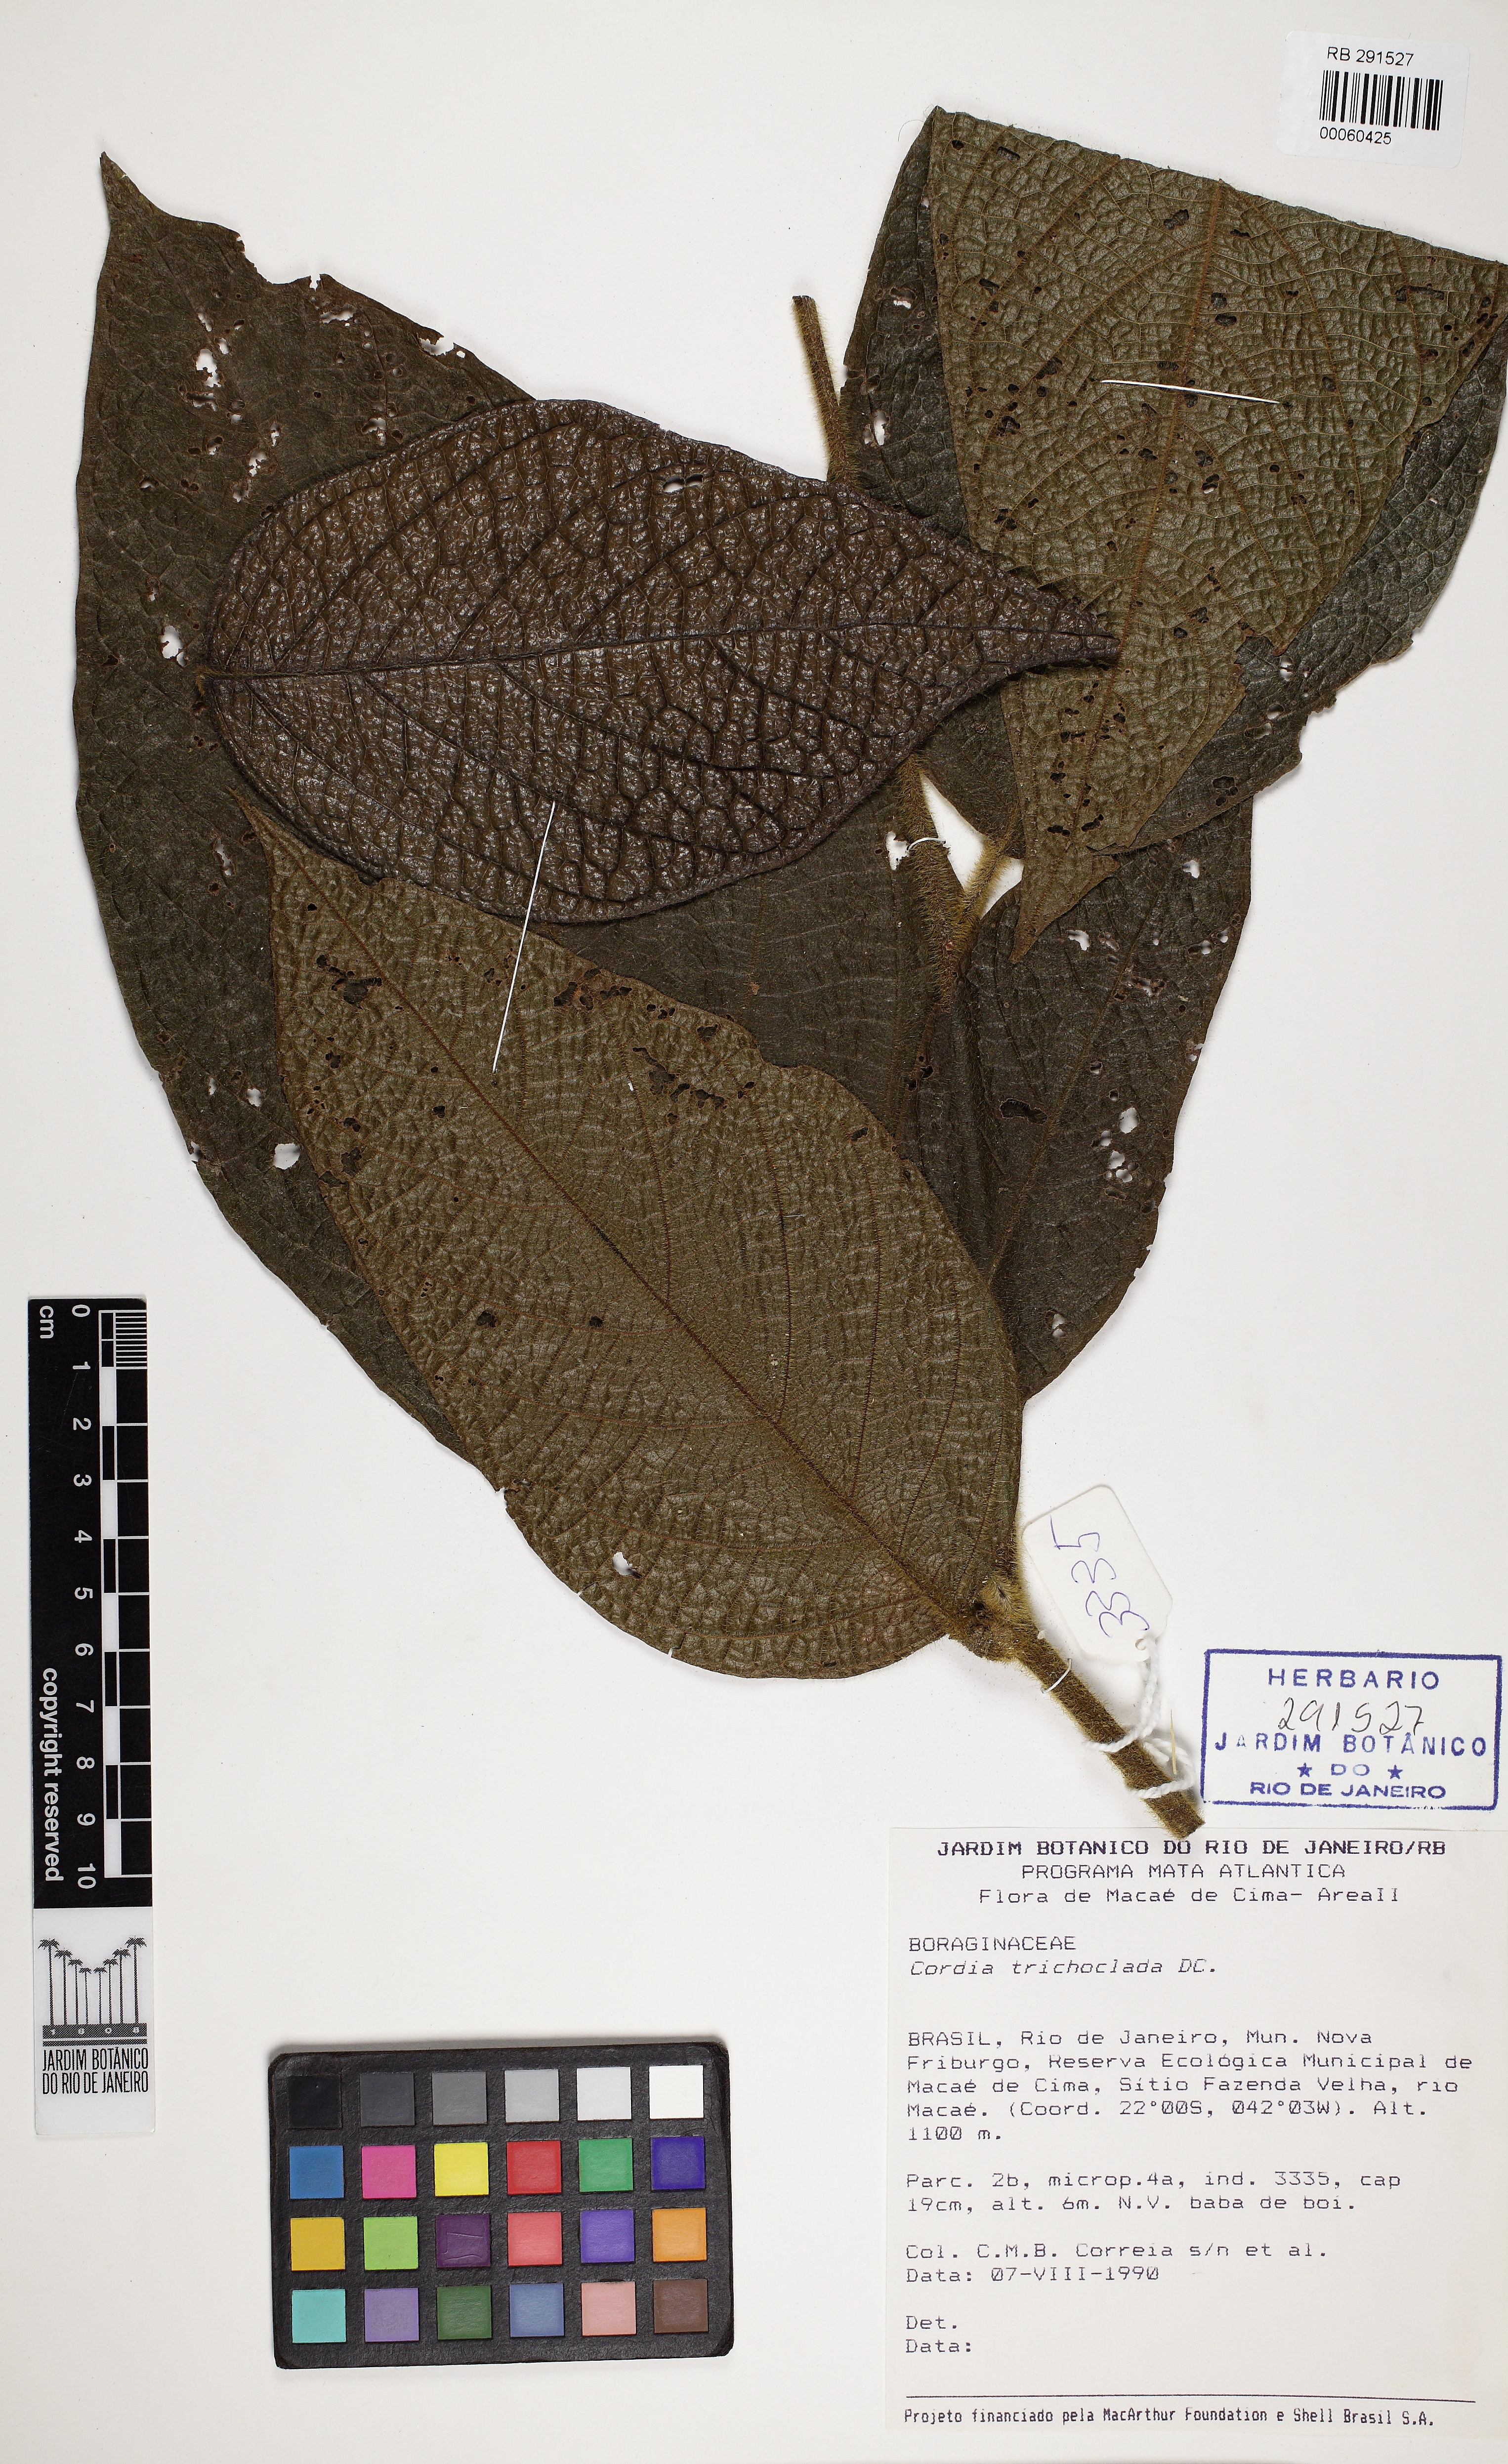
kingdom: Plantae
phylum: Tracheophyta
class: Magnoliopsida
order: Boraginales
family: Cordiaceae
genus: Cordia
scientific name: Cordia trichoclada
